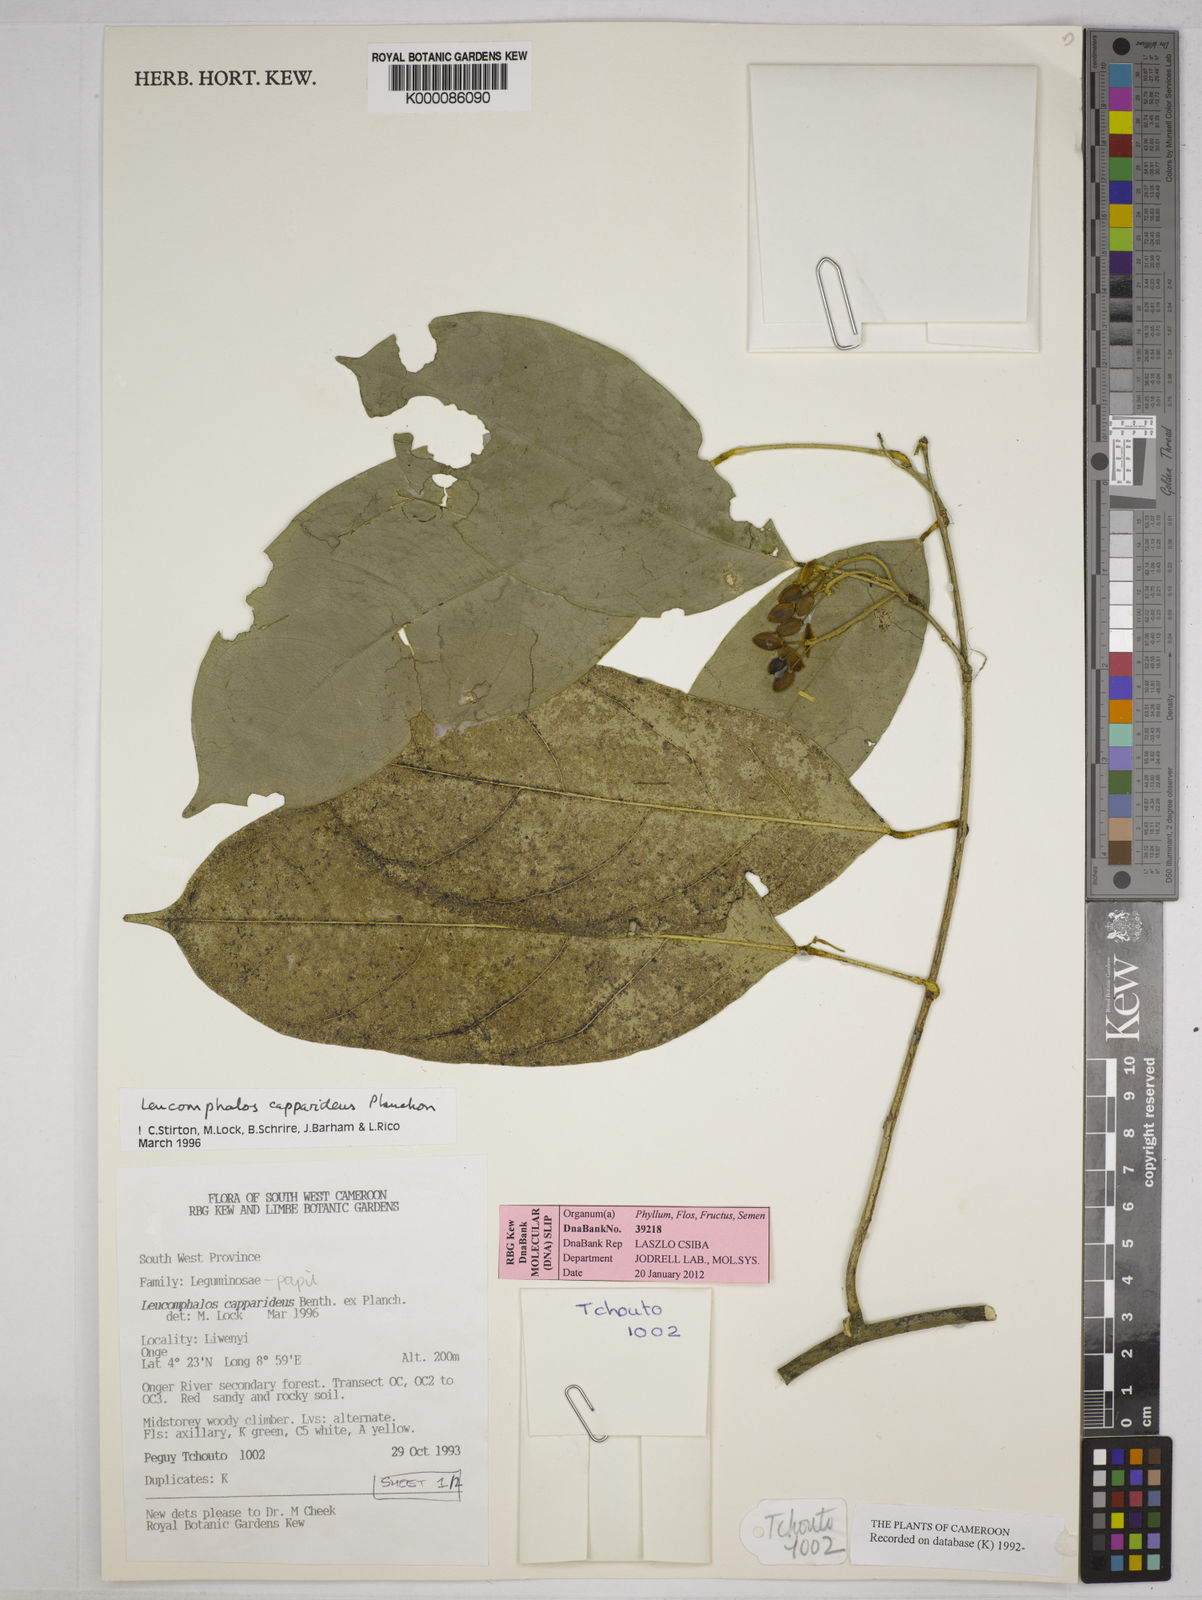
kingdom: Plantae
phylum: Tracheophyta
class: Magnoliopsida
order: Fabales
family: Fabaceae
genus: Leucomphalos
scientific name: Leucomphalos
